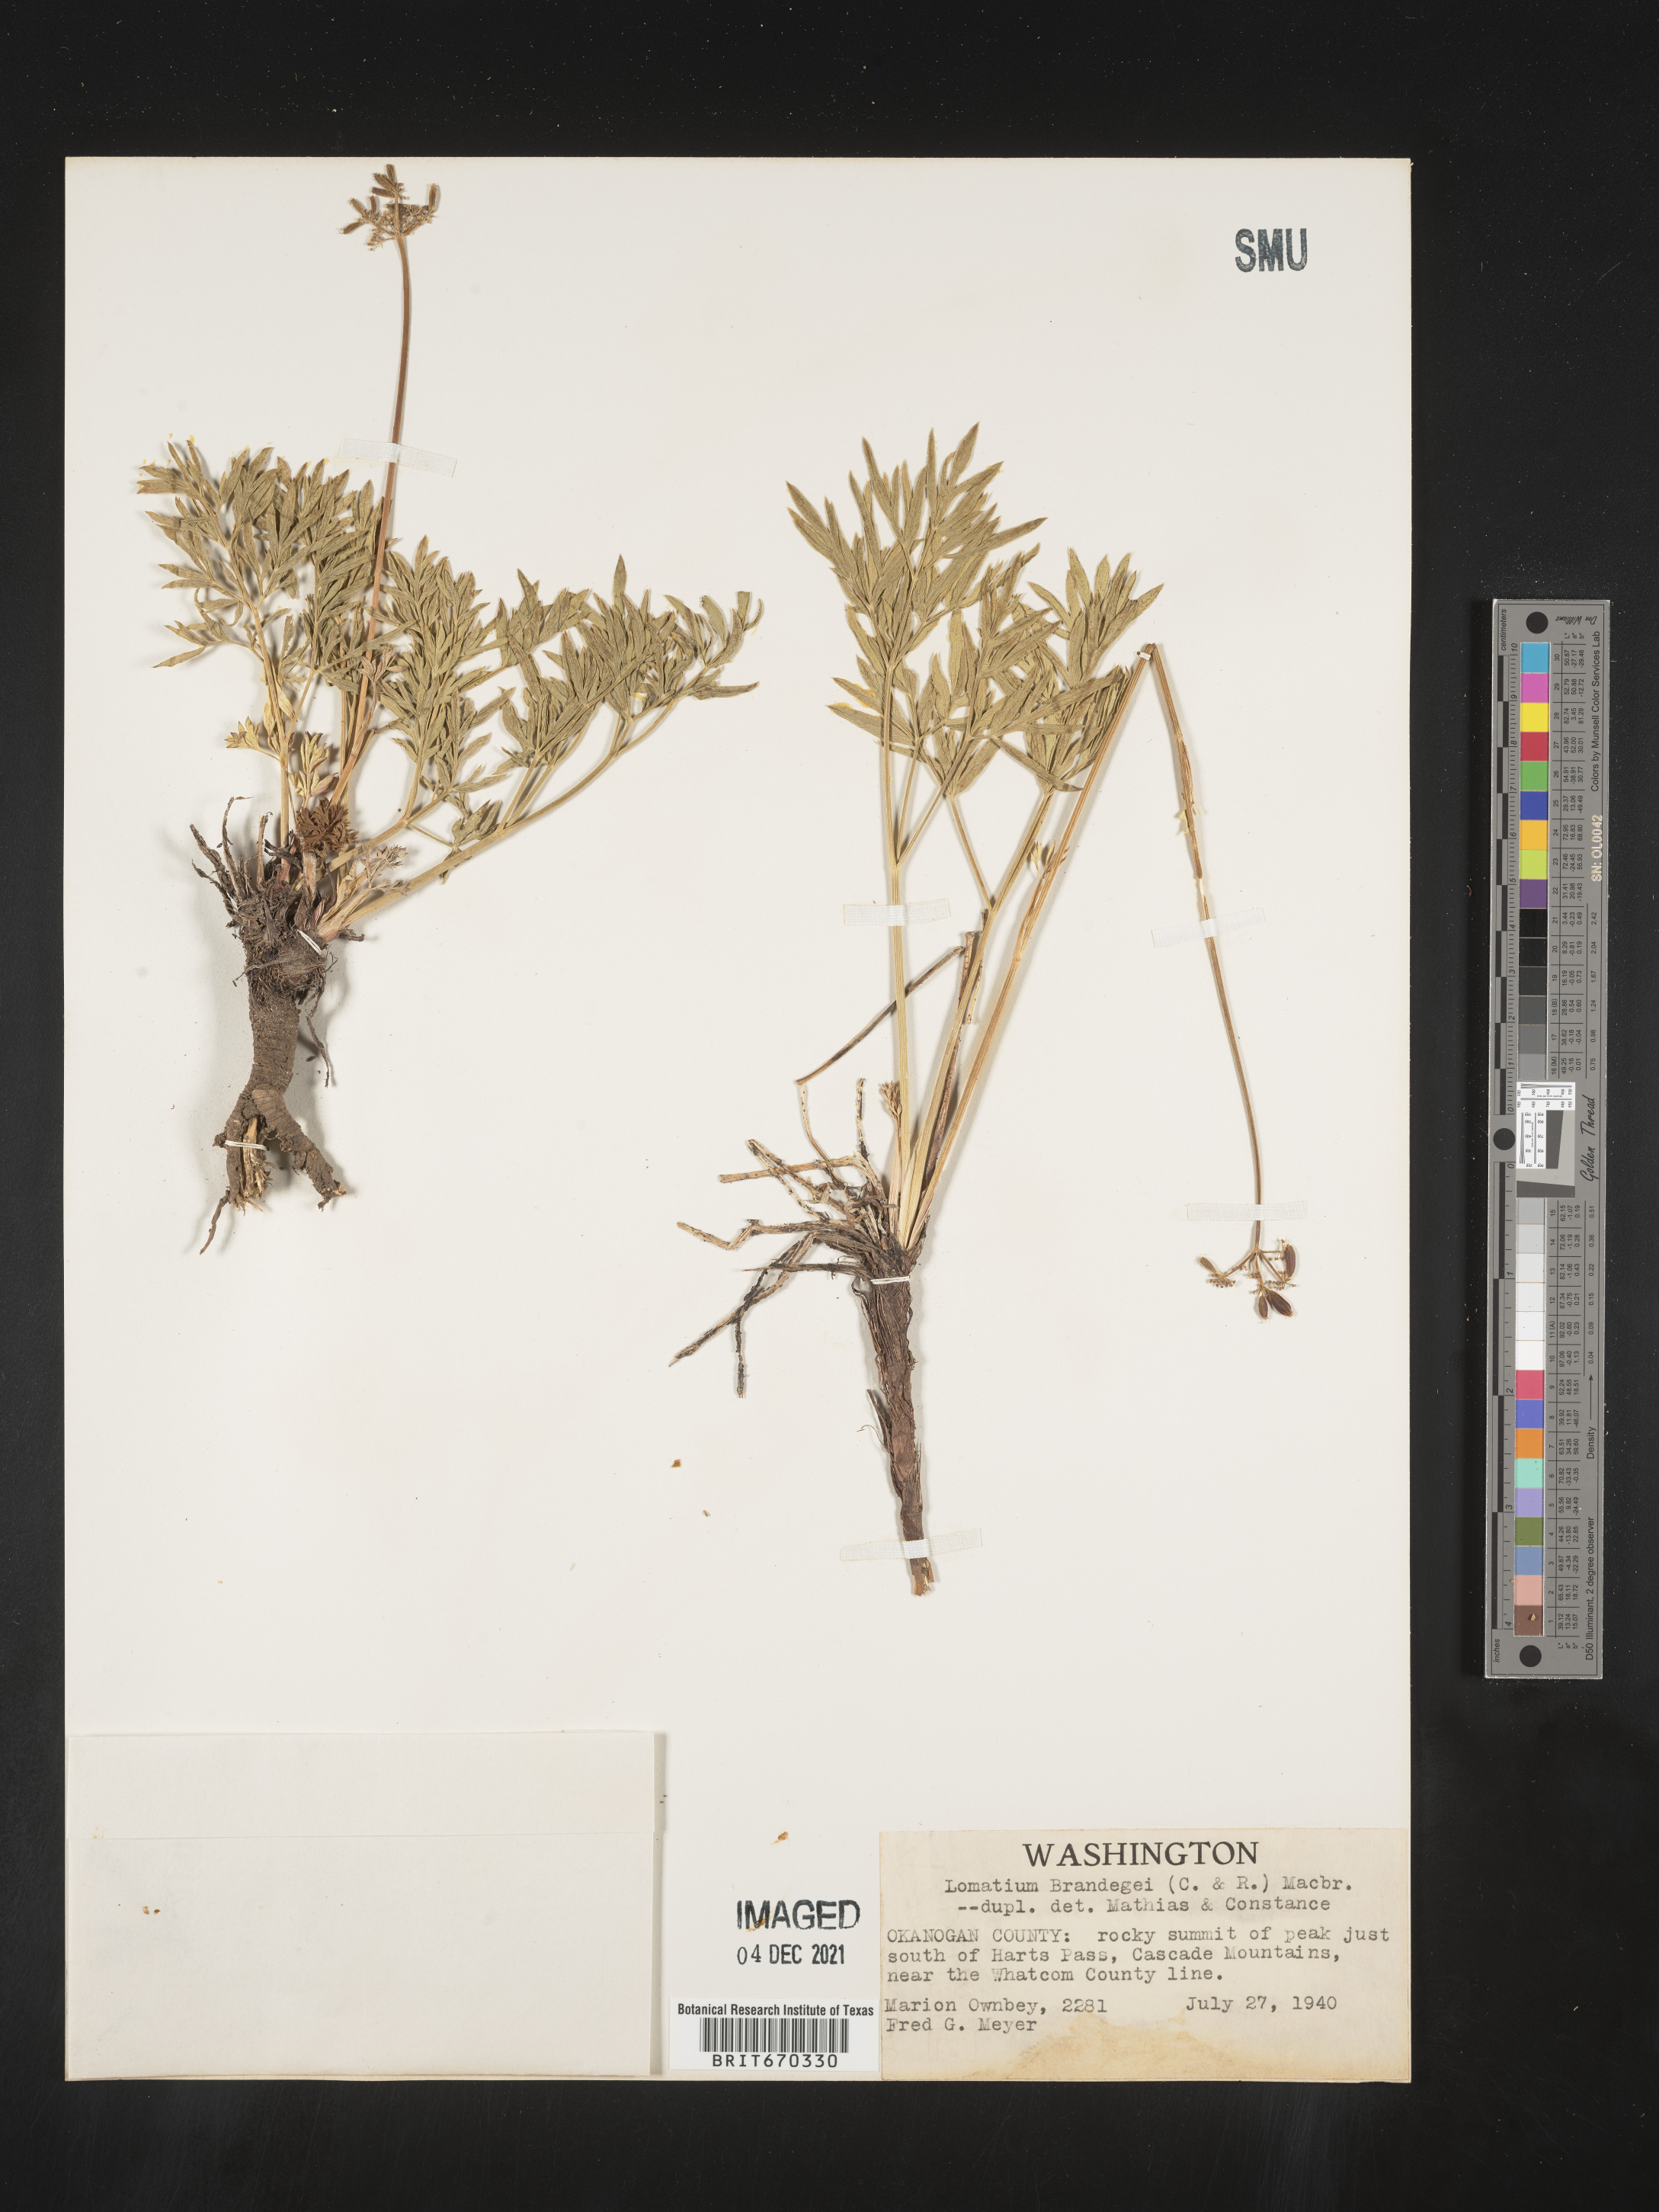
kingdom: Plantae
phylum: Tracheophyta
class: Magnoliopsida
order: Apiales
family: Apiaceae
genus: Lomatium
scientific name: Lomatium brandegeei
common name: Brandegee's desert-parsley
